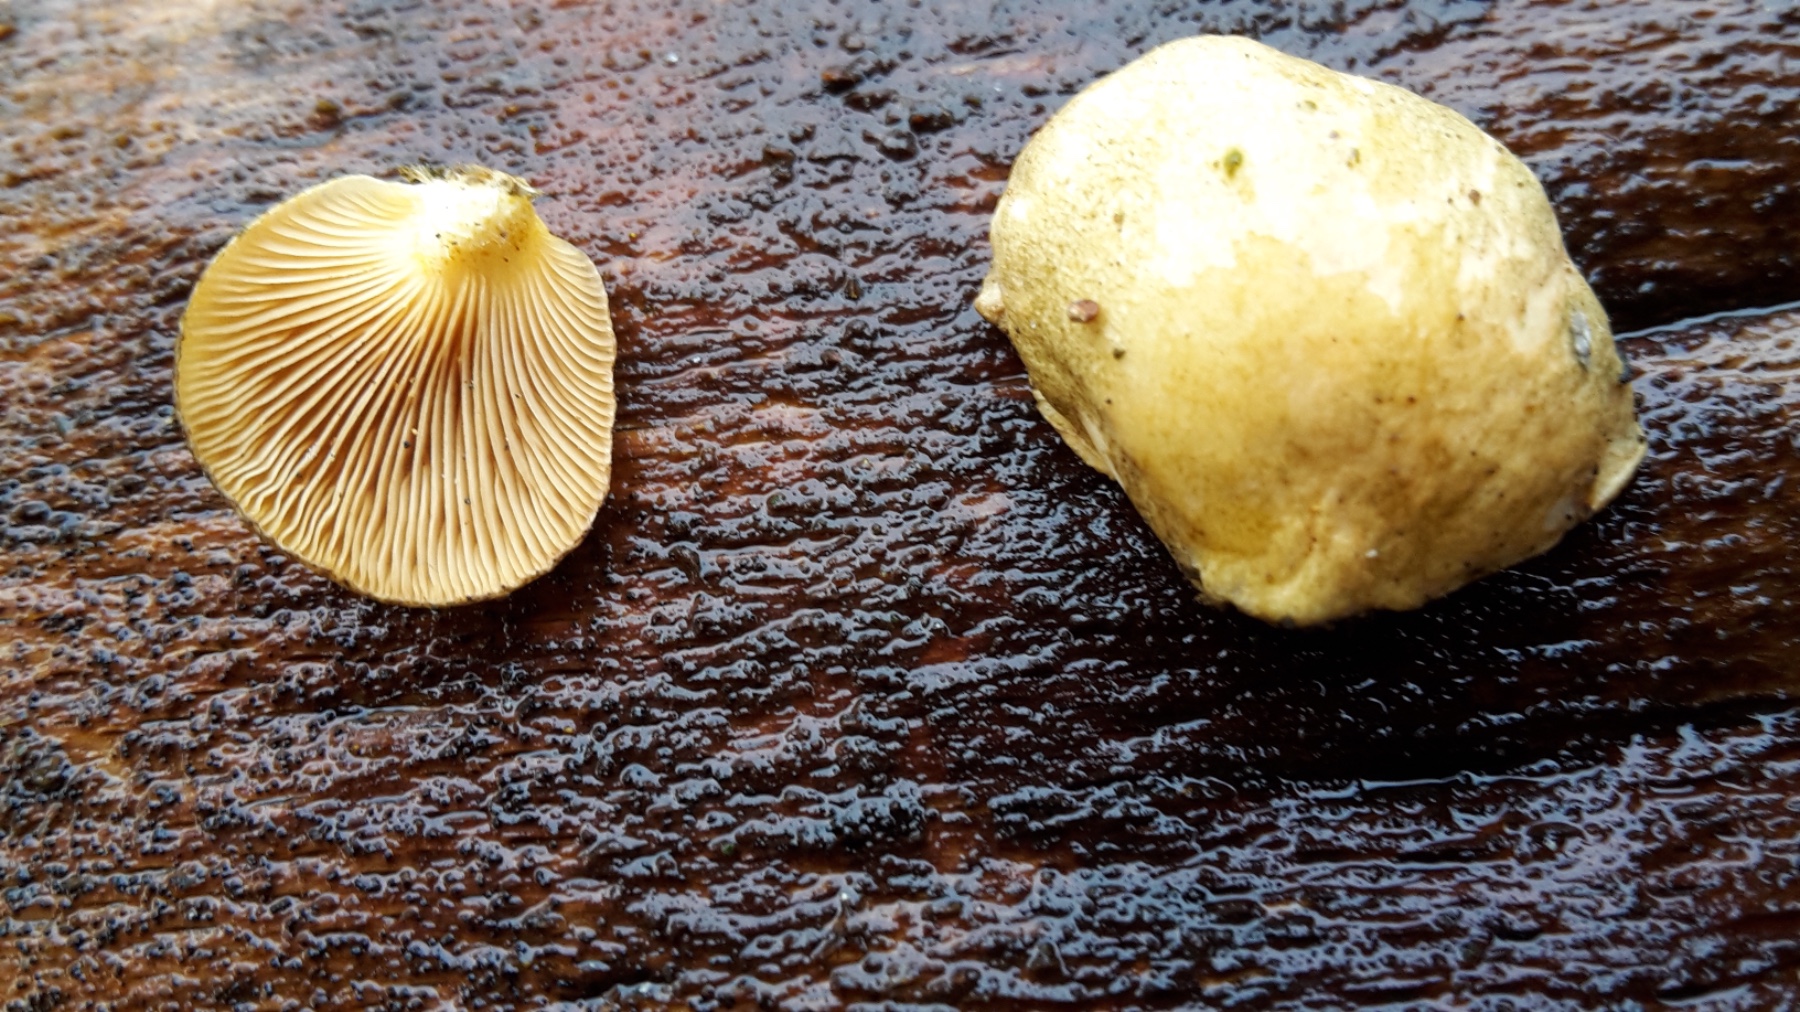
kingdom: Fungi
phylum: Basidiomycota
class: Agaricomycetes
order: Agaricales
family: Sarcomyxaceae
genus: Sarcomyxa
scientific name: Sarcomyxa serotina
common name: gummihat
